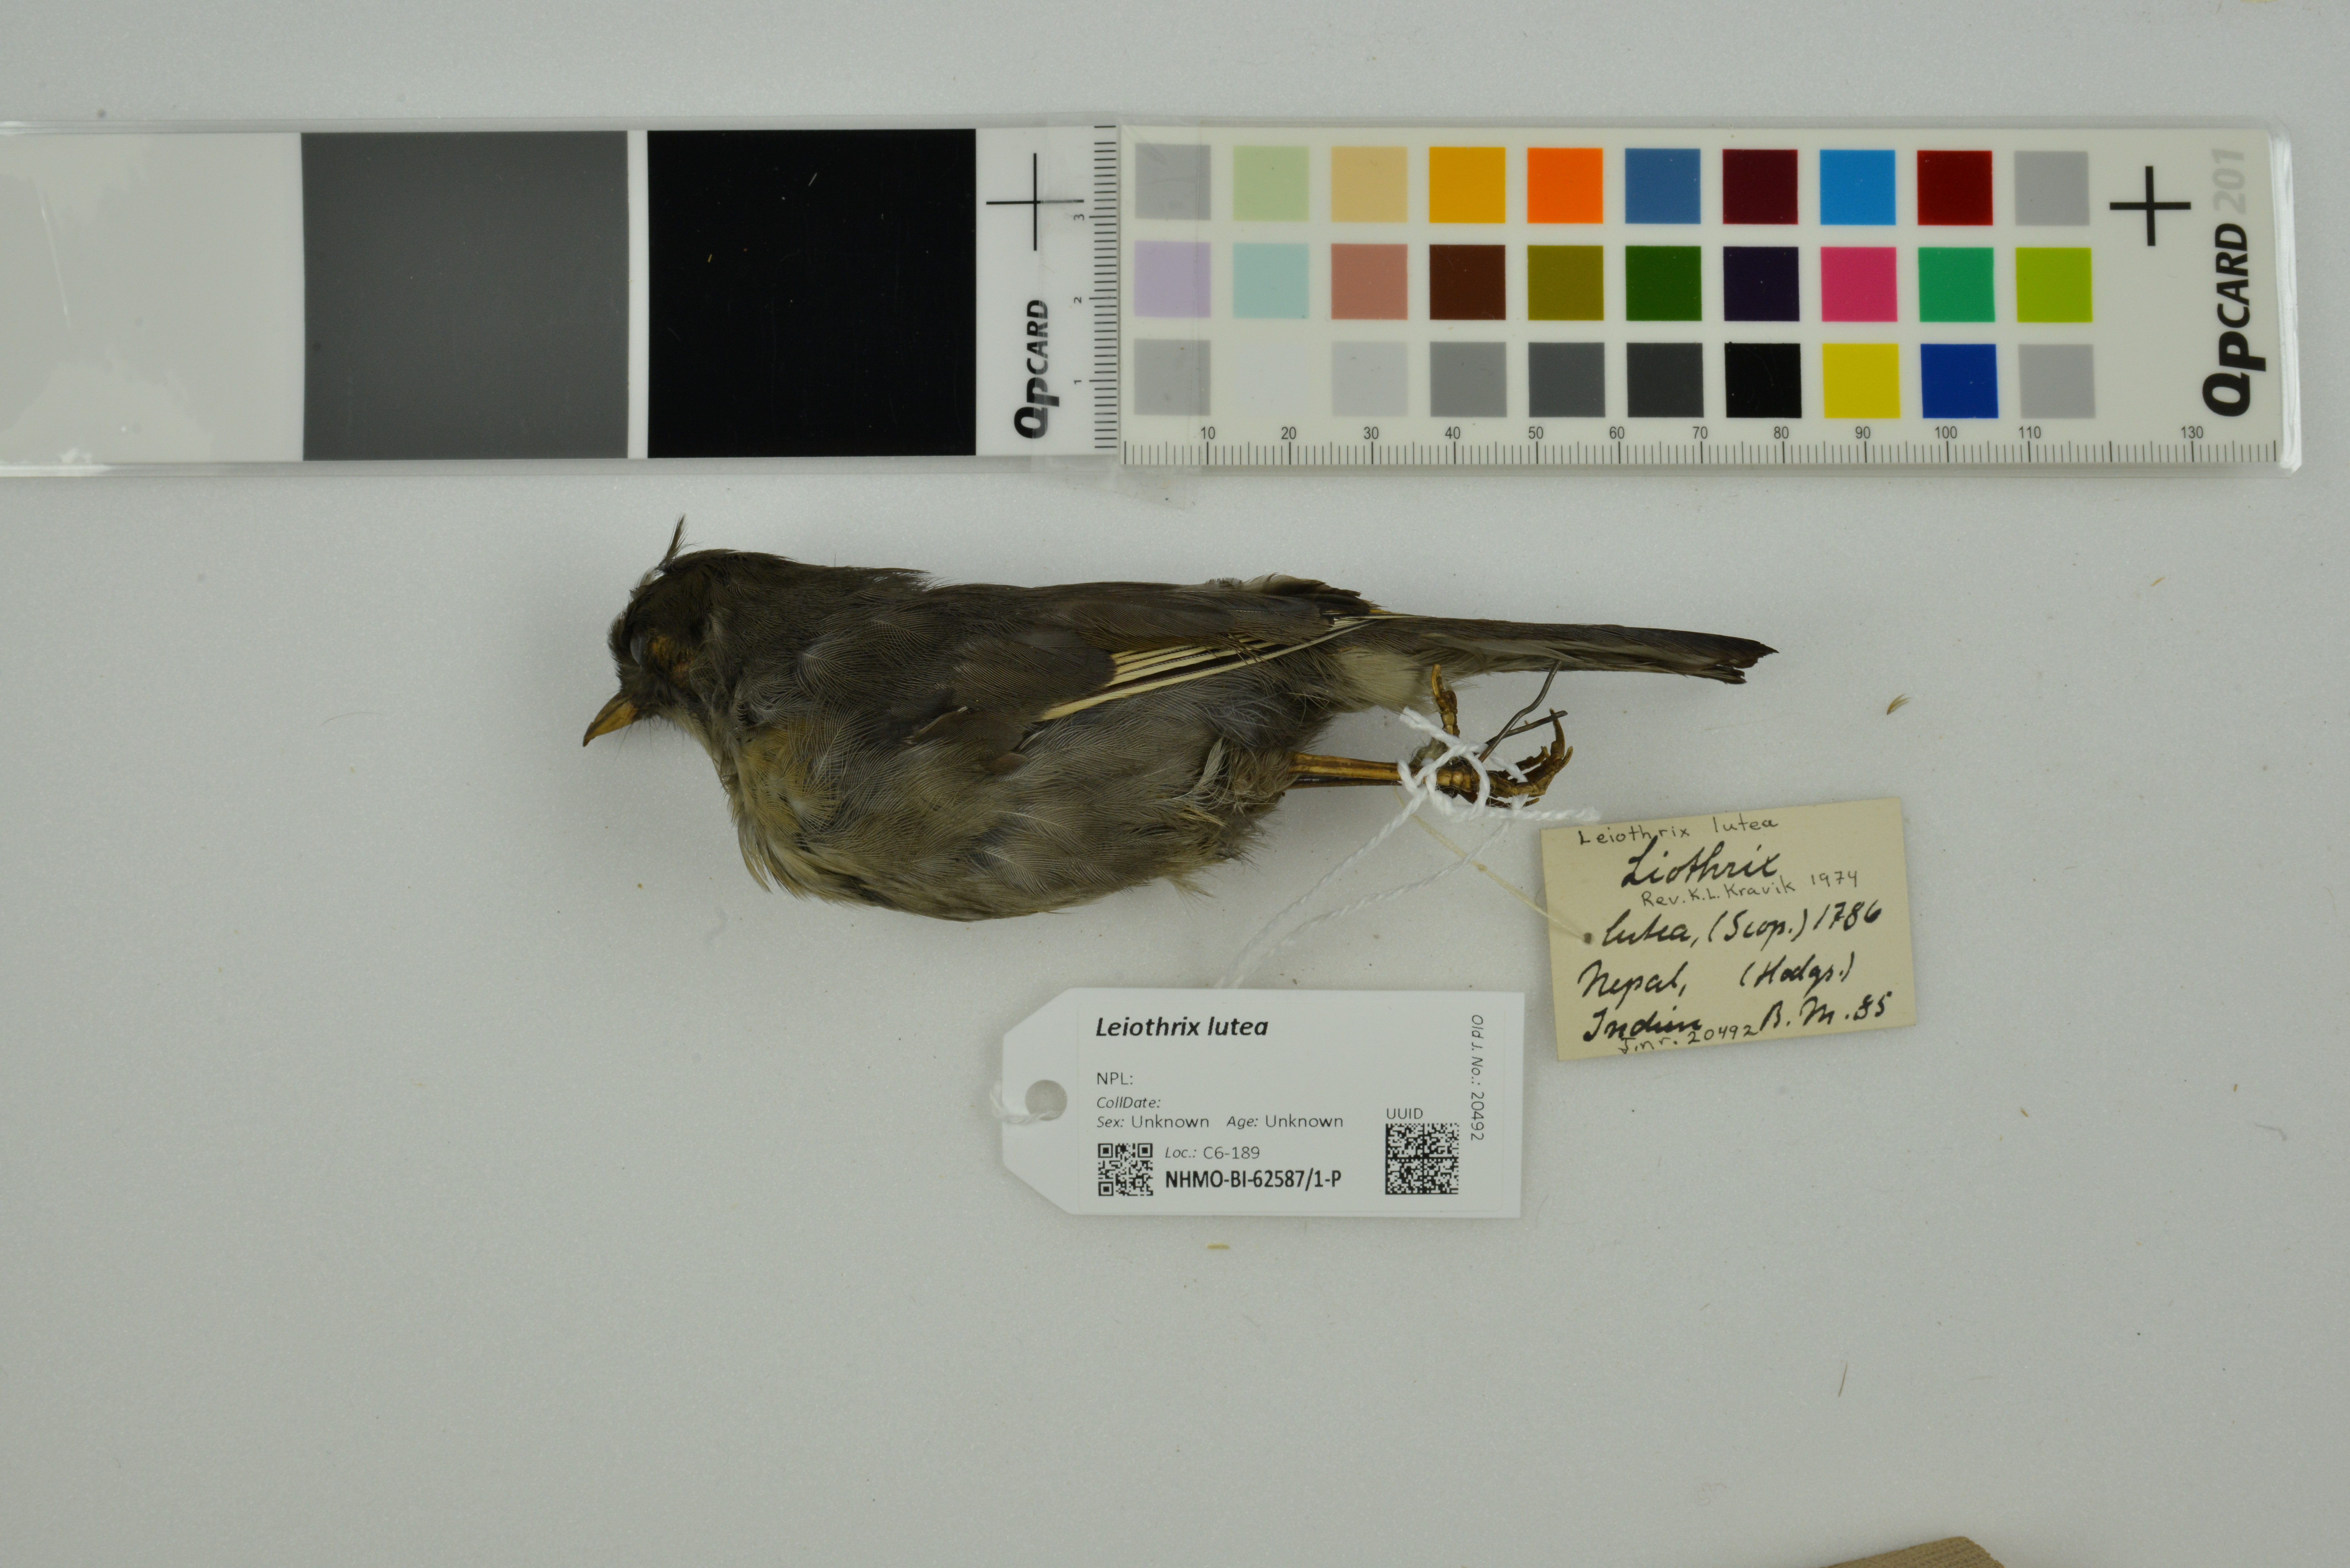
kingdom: Animalia
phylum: Chordata
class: Aves
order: Passeriformes
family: Leiothrichidae
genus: Leiothrix
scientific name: Leiothrix lutea
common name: Red-billed leiothrix
